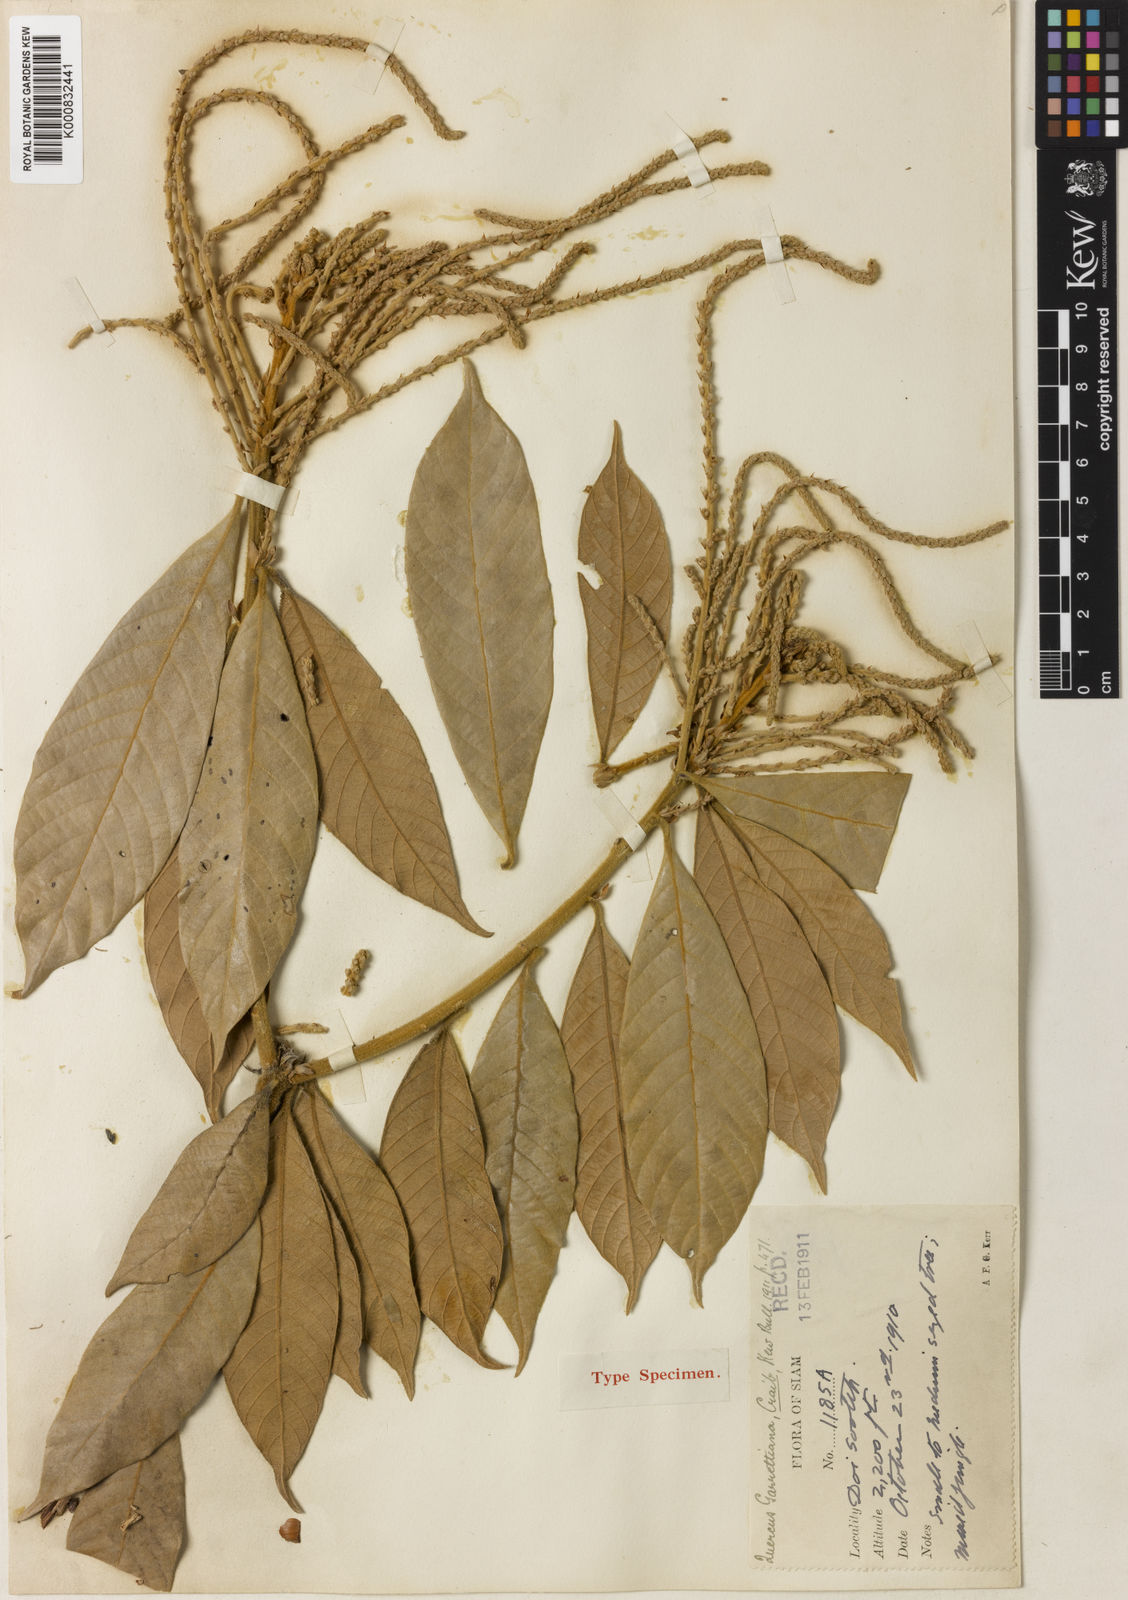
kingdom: Plantae
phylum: Tracheophyta
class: Magnoliopsida
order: Fagales
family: Fagaceae
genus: Lithocarpus
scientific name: Lithocarpus garrettianus
